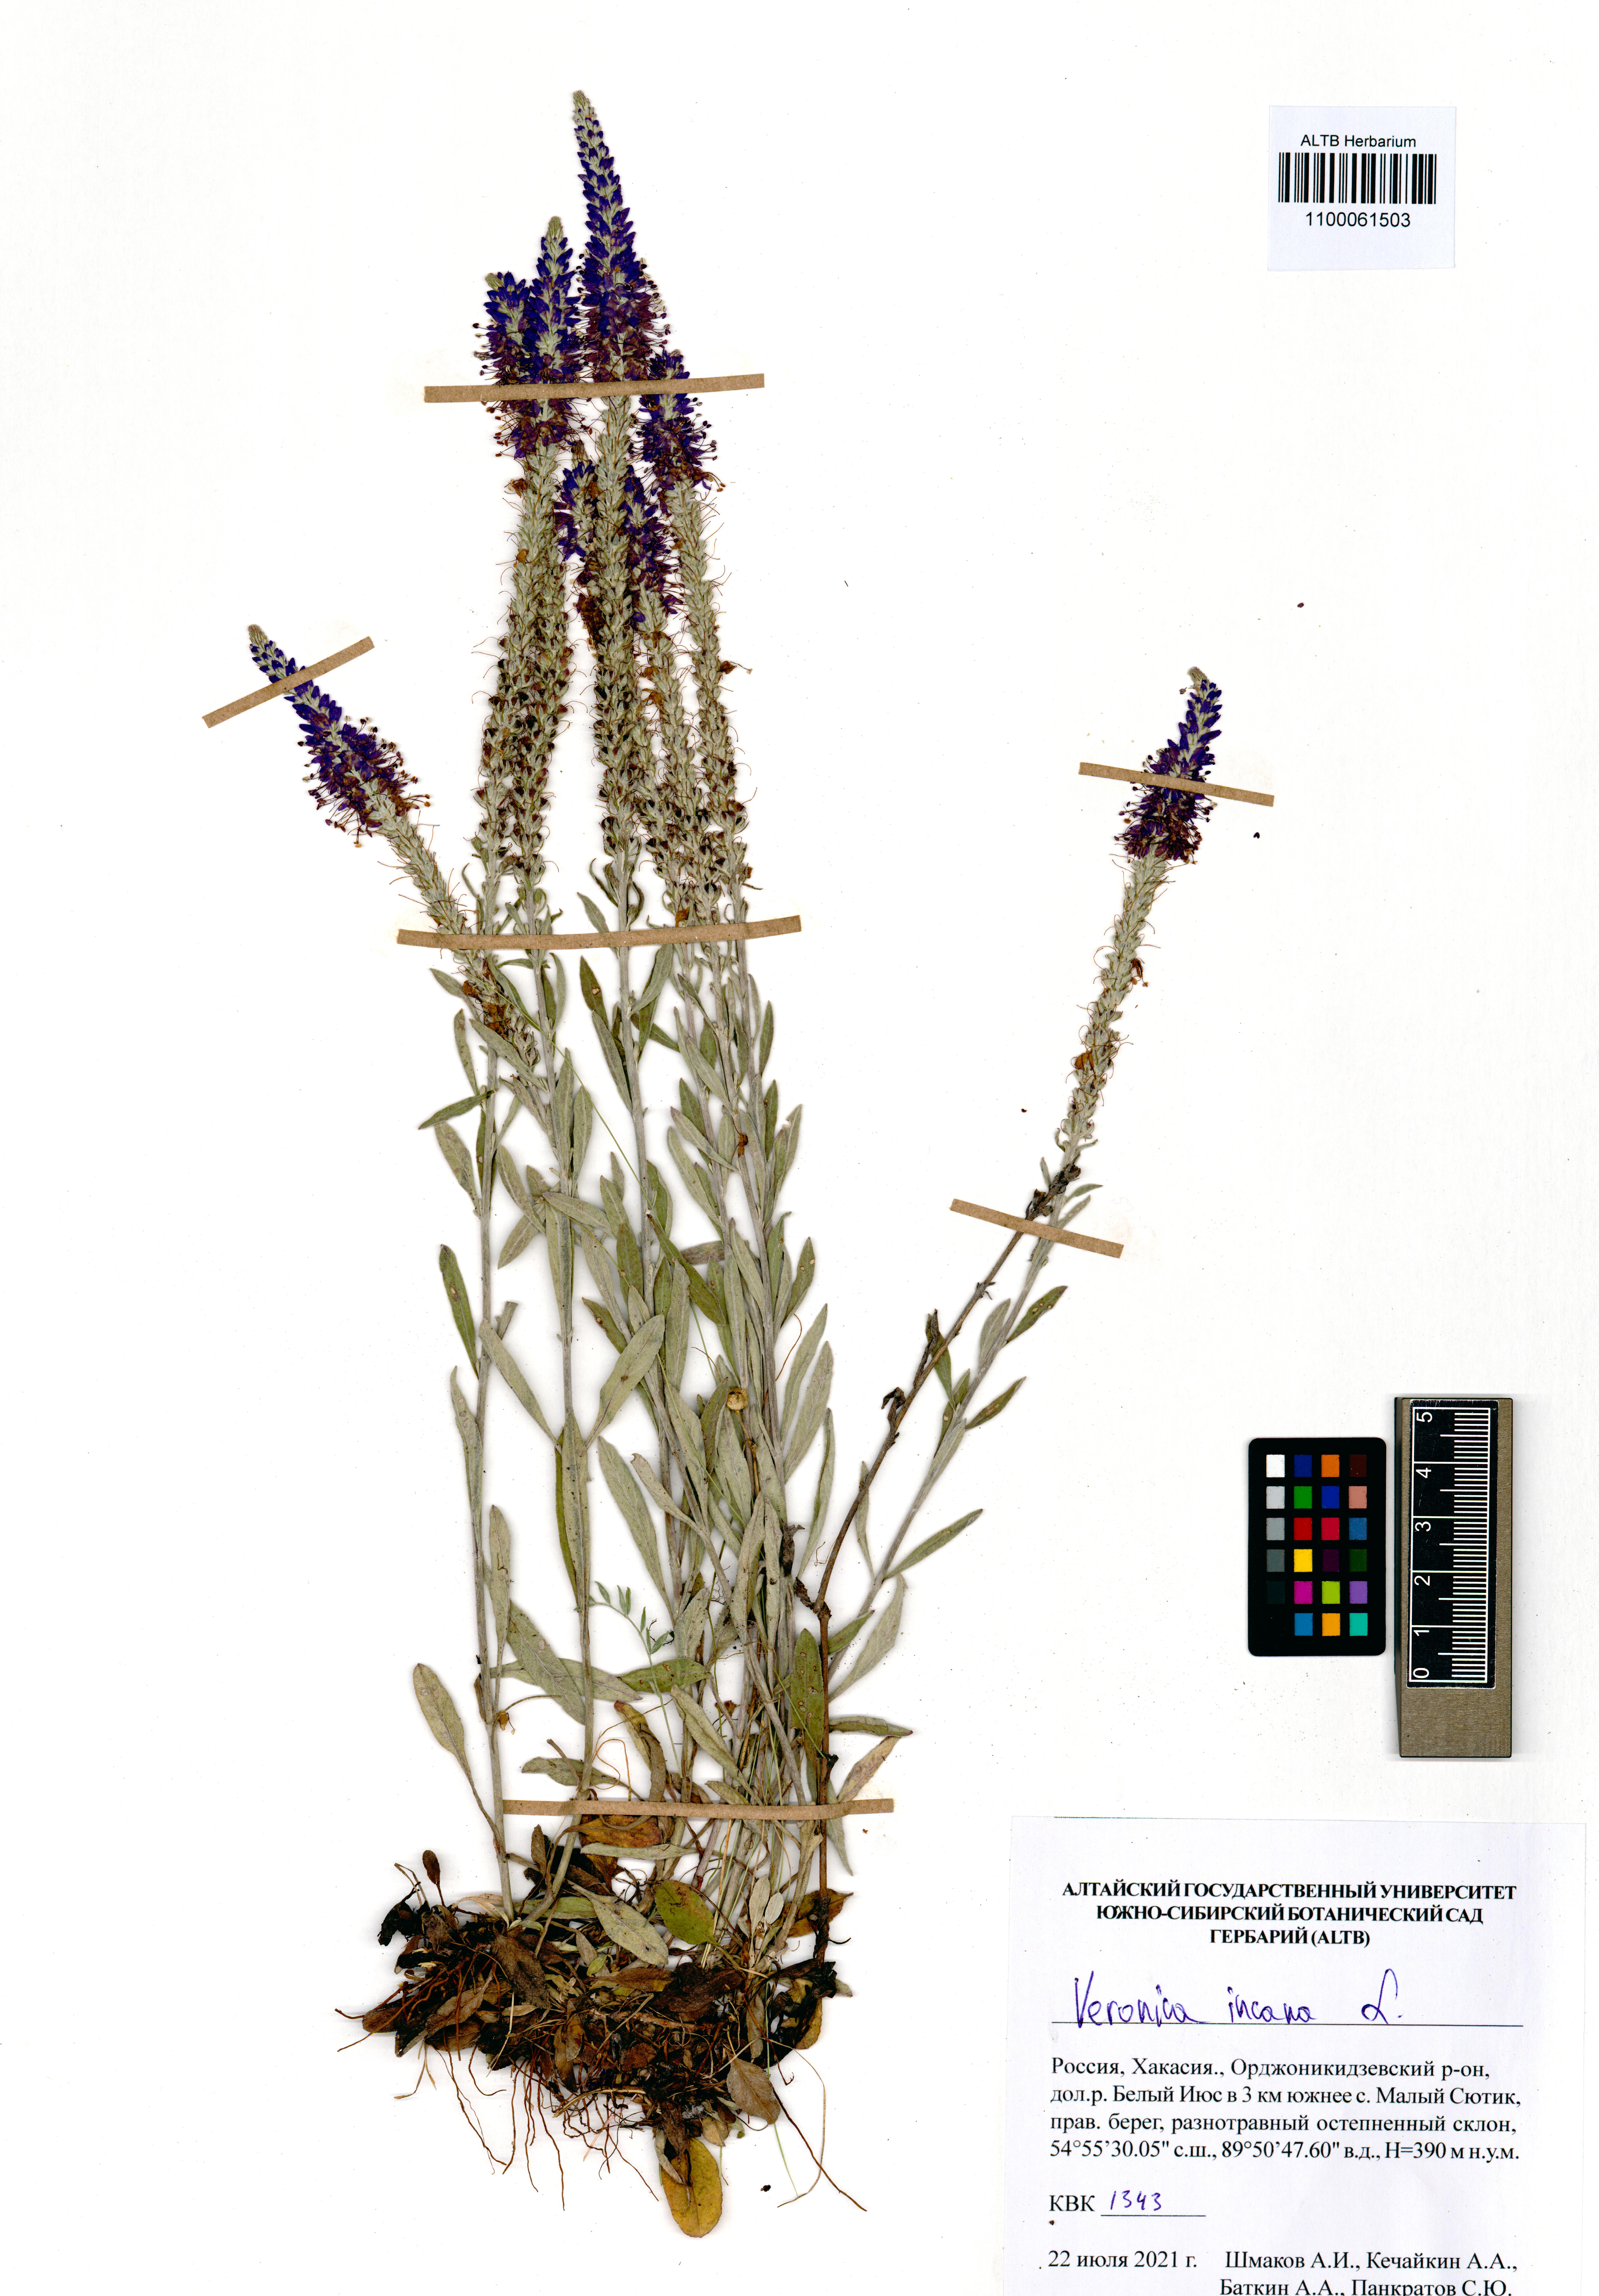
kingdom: Plantae
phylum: Tracheophyta
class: Magnoliopsida
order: Lamiales
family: Plantaginaceae
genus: Veronica
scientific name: Veronica incana
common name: Silver speedwell
